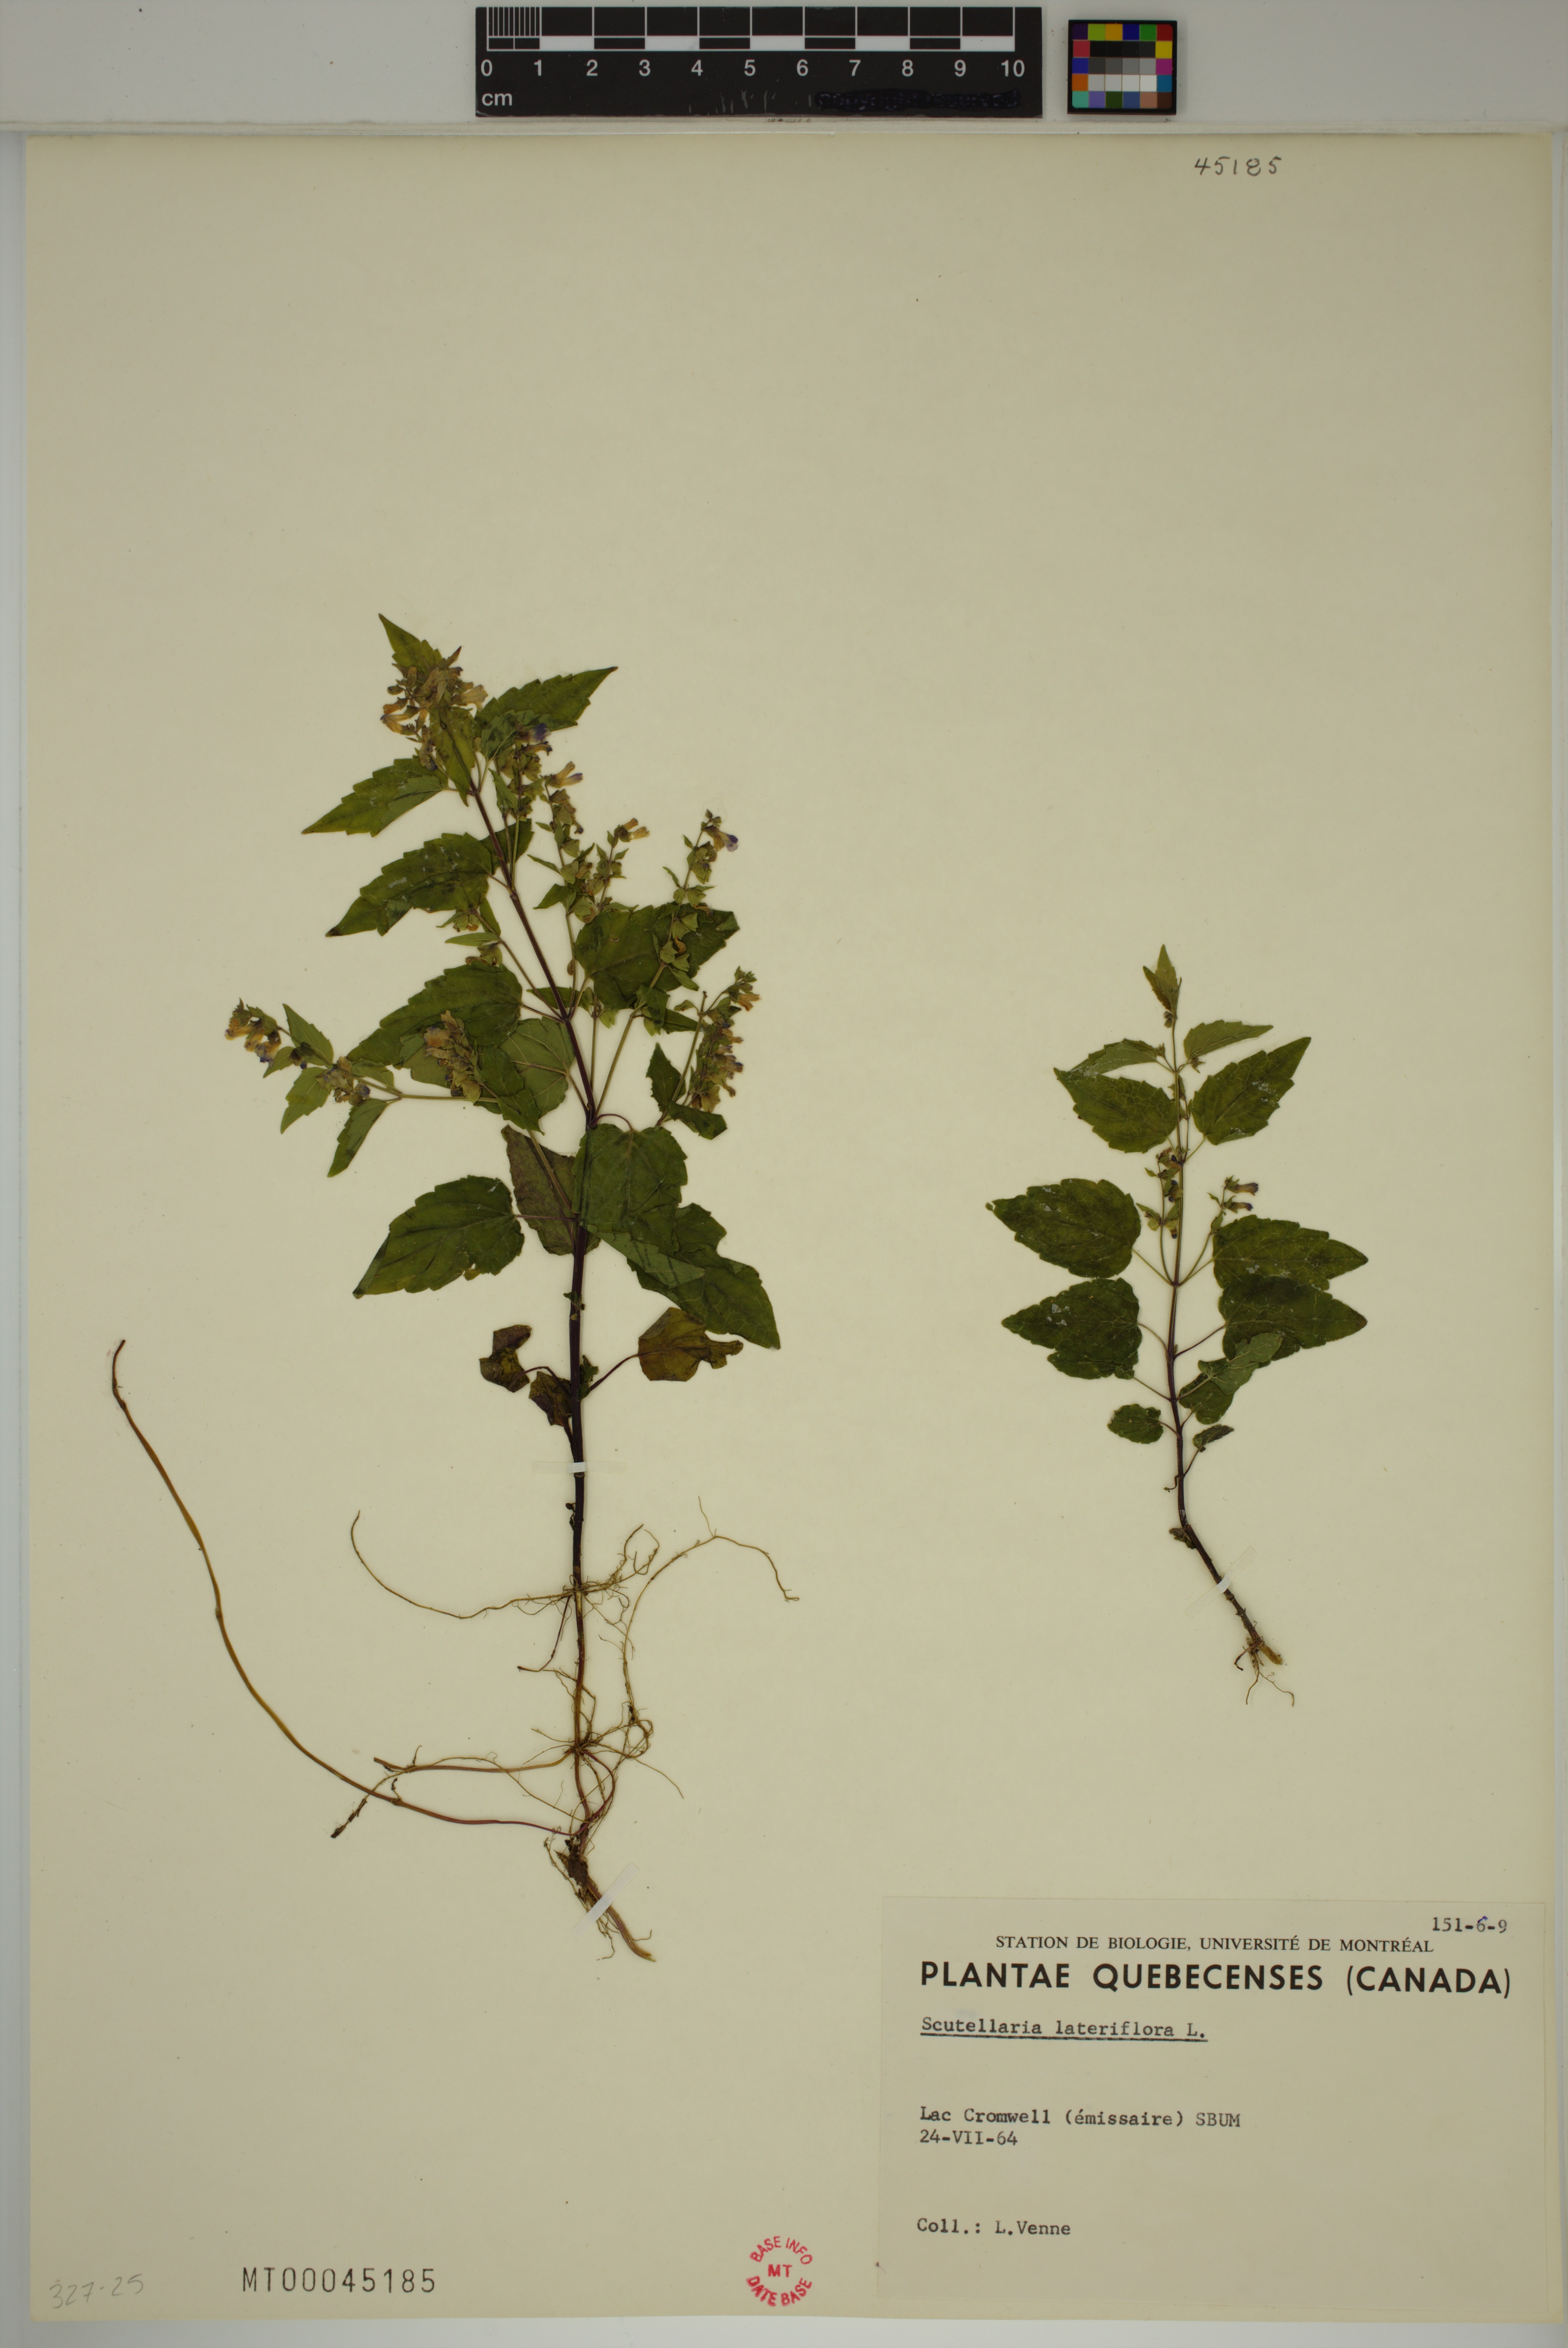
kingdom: Plantae
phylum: Tracheophyta
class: Magnoliopsida
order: Lamiales
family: Lamiaceae
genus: Scutellaria
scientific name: Scutellaria lateriflora
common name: Blue skullcap
